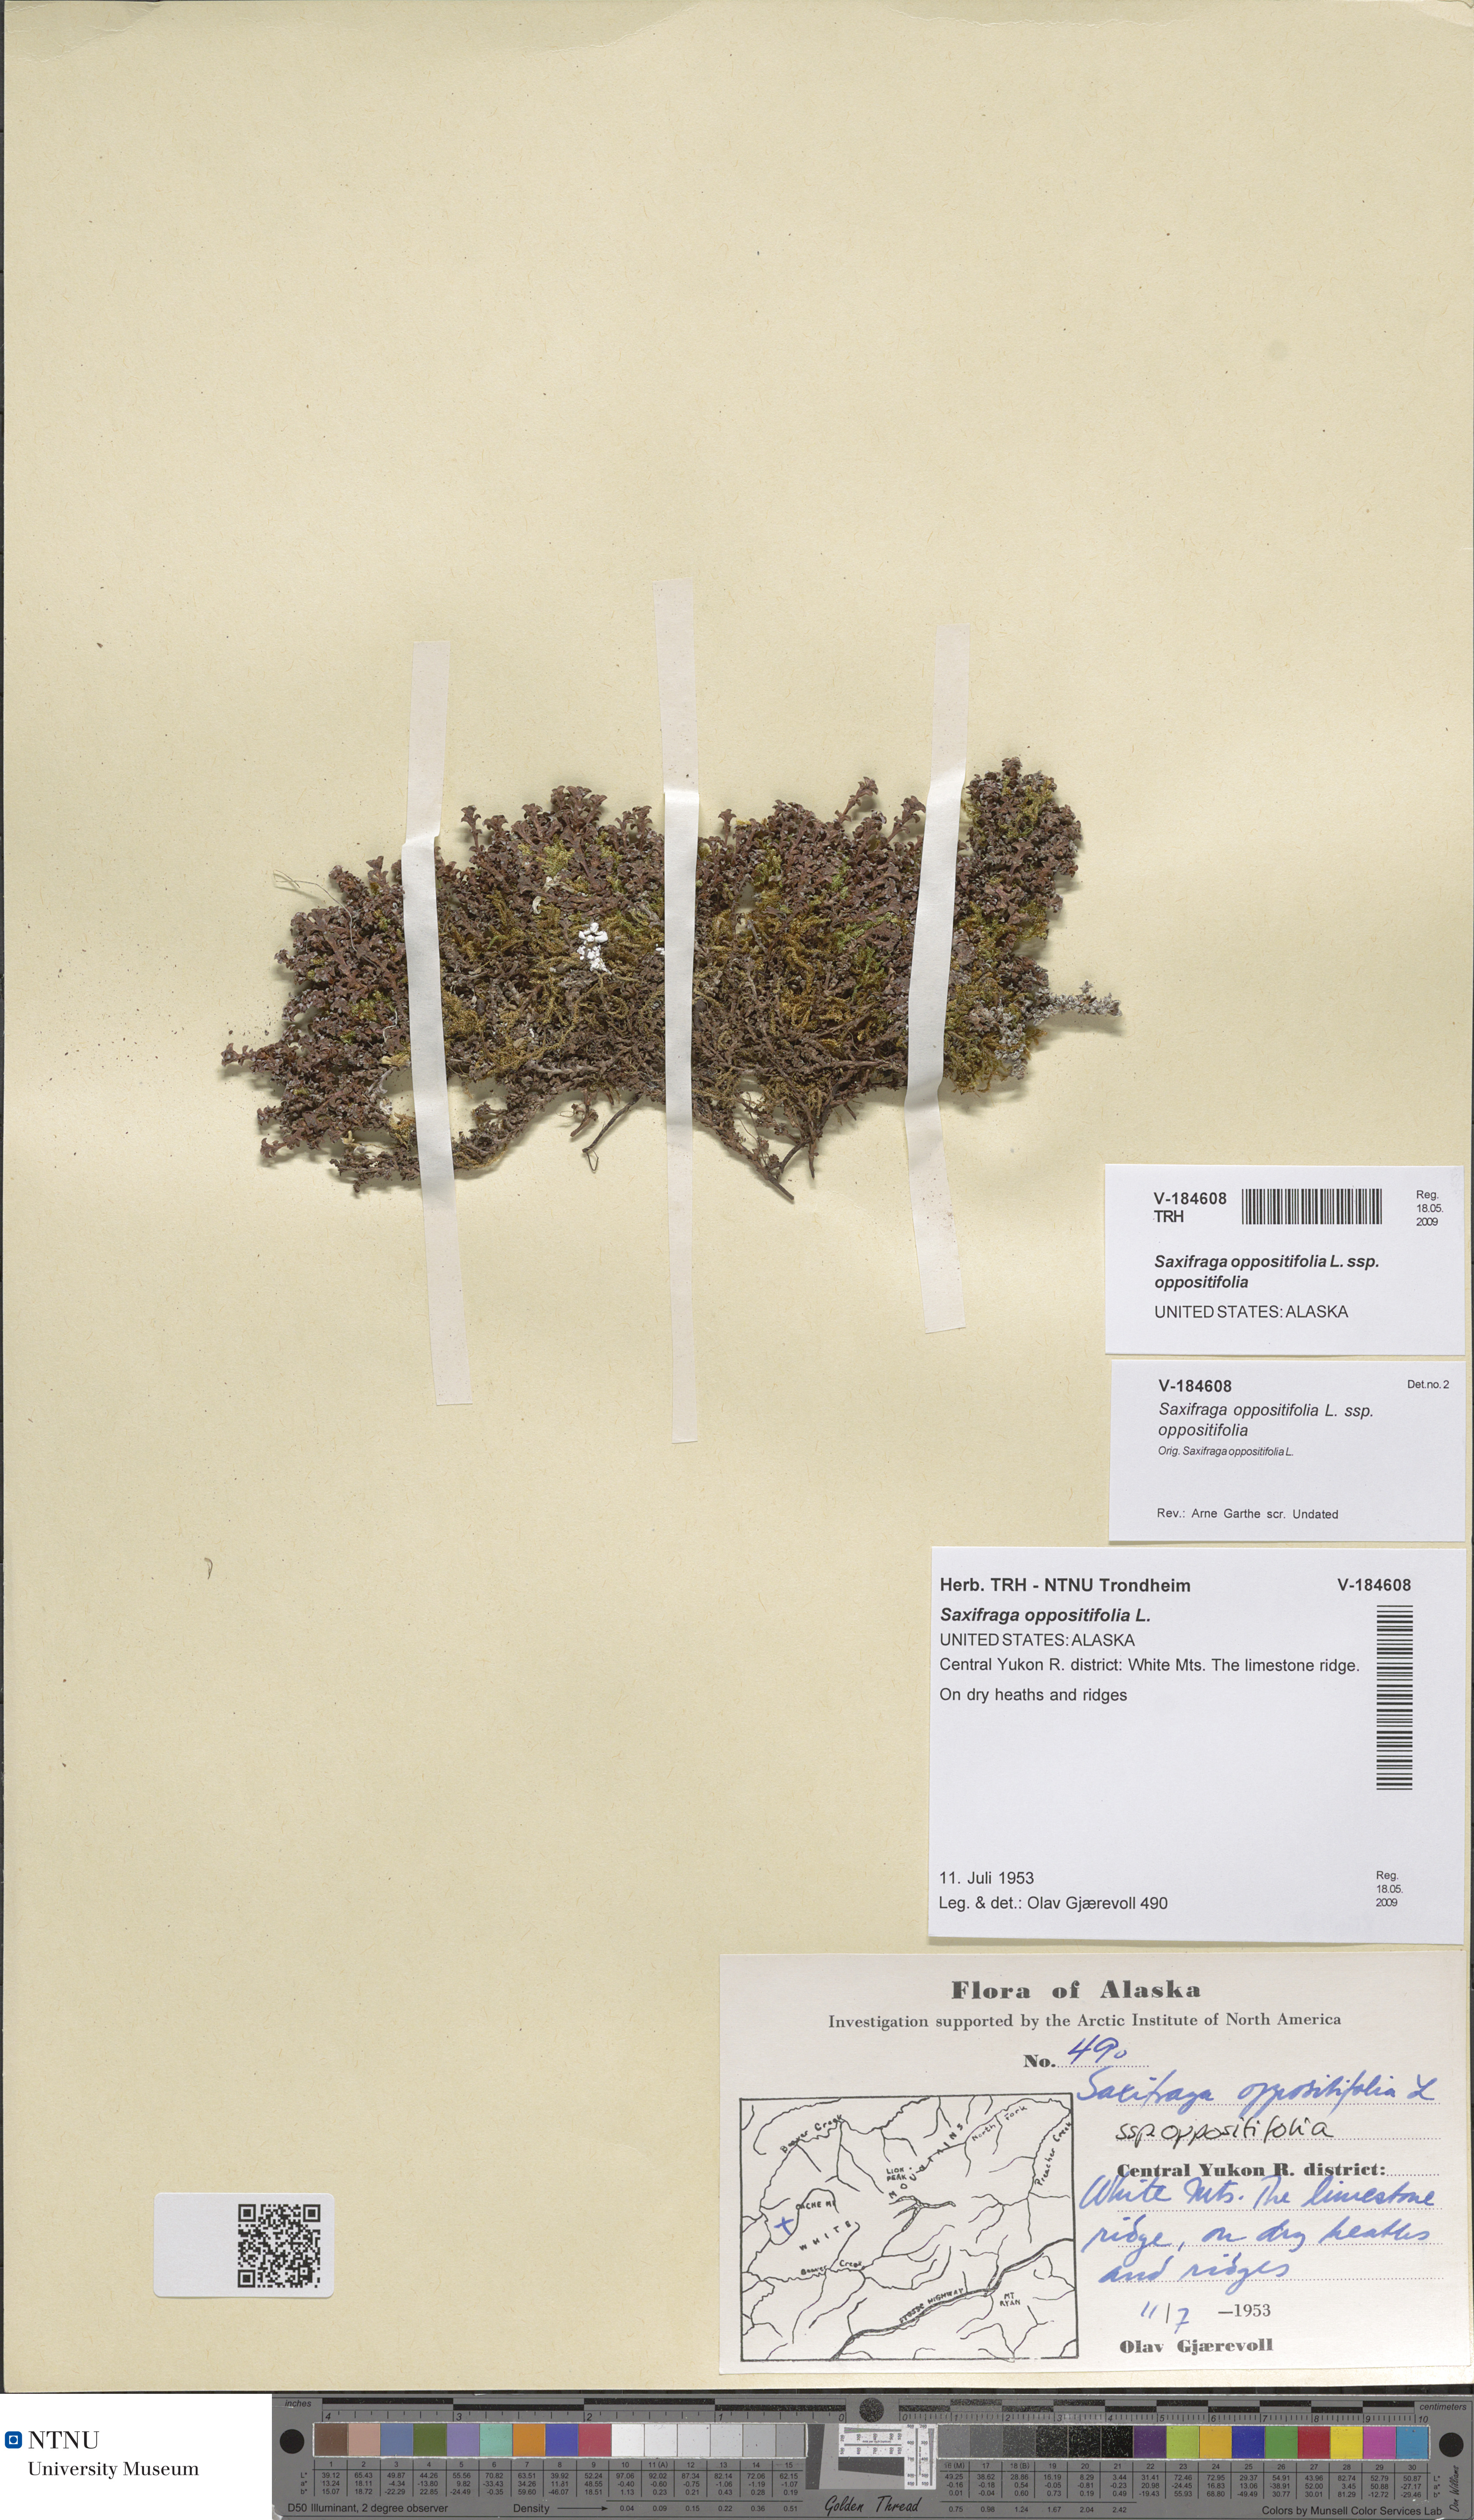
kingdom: Plantae
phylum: Tracheophyta
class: Magnoliopsida
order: Saxifragales
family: Saxifragaceae
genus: Saxifraga
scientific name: Saxifraga oppositifolia
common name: Purple saxifrage
